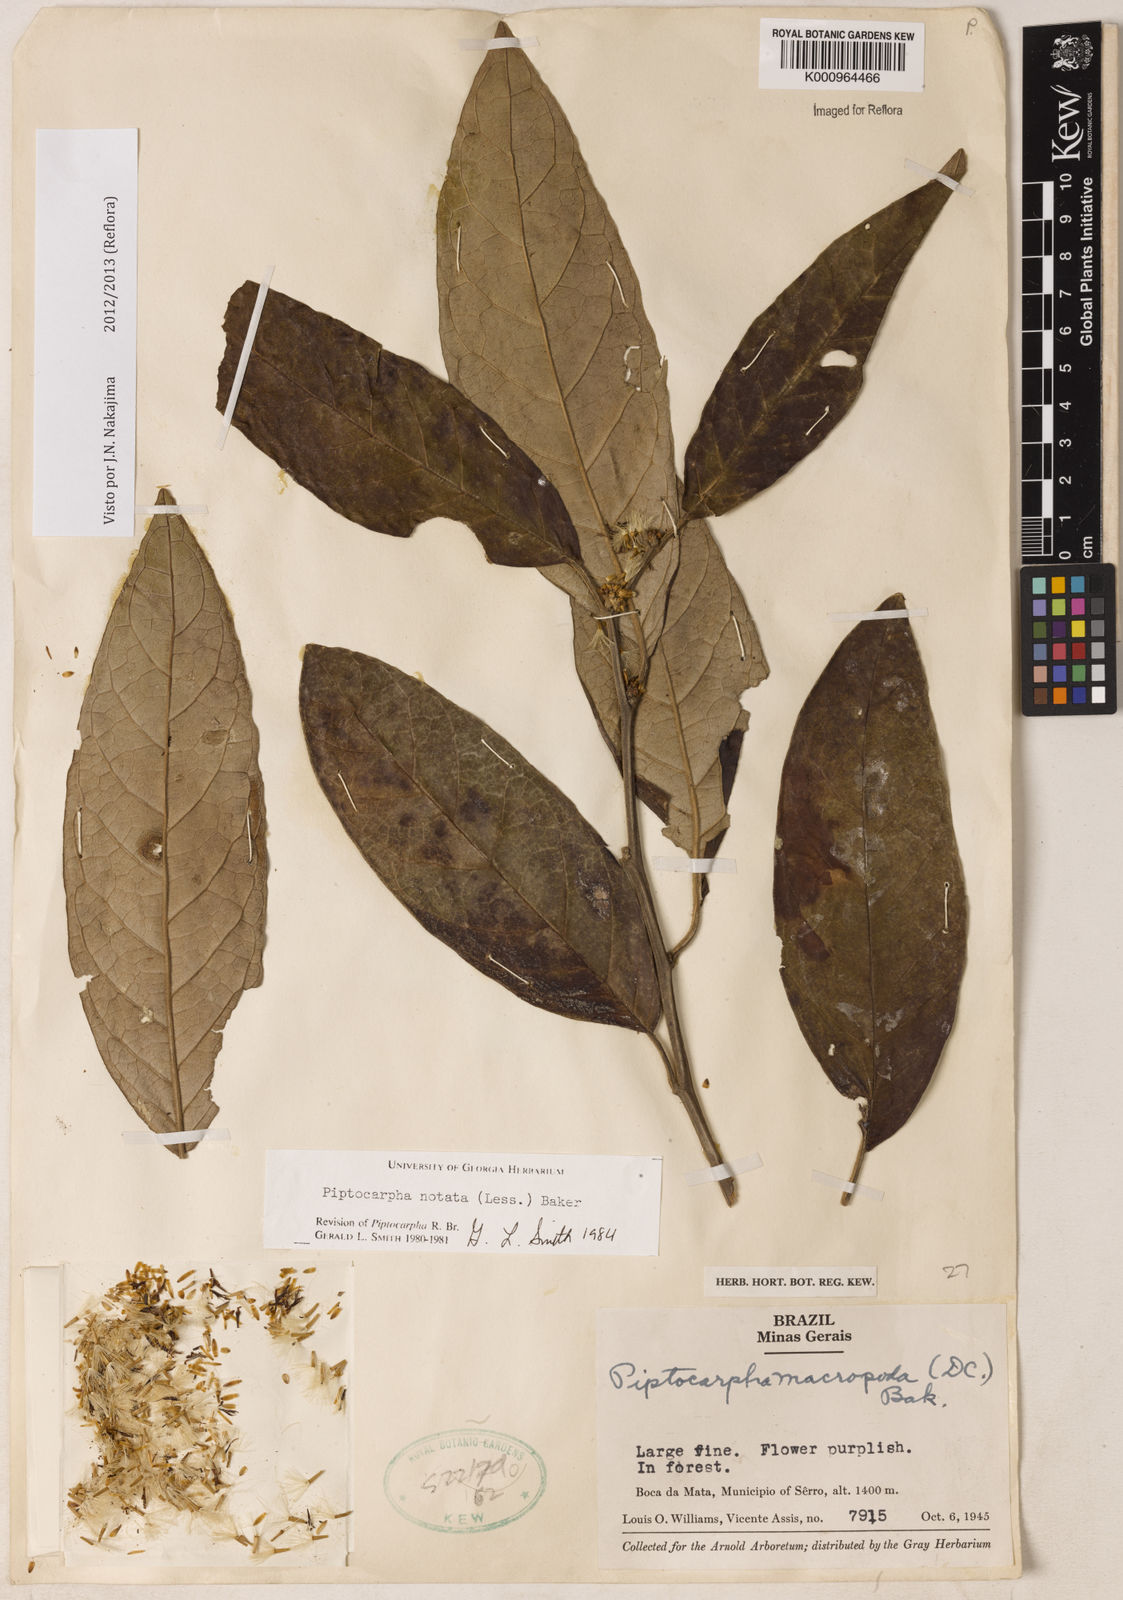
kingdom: Plantae
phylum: Tracheophyta
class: Magnoliopsida
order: Asterales
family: Asteraceae
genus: Piptocarpha
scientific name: Piptocarpha notata
